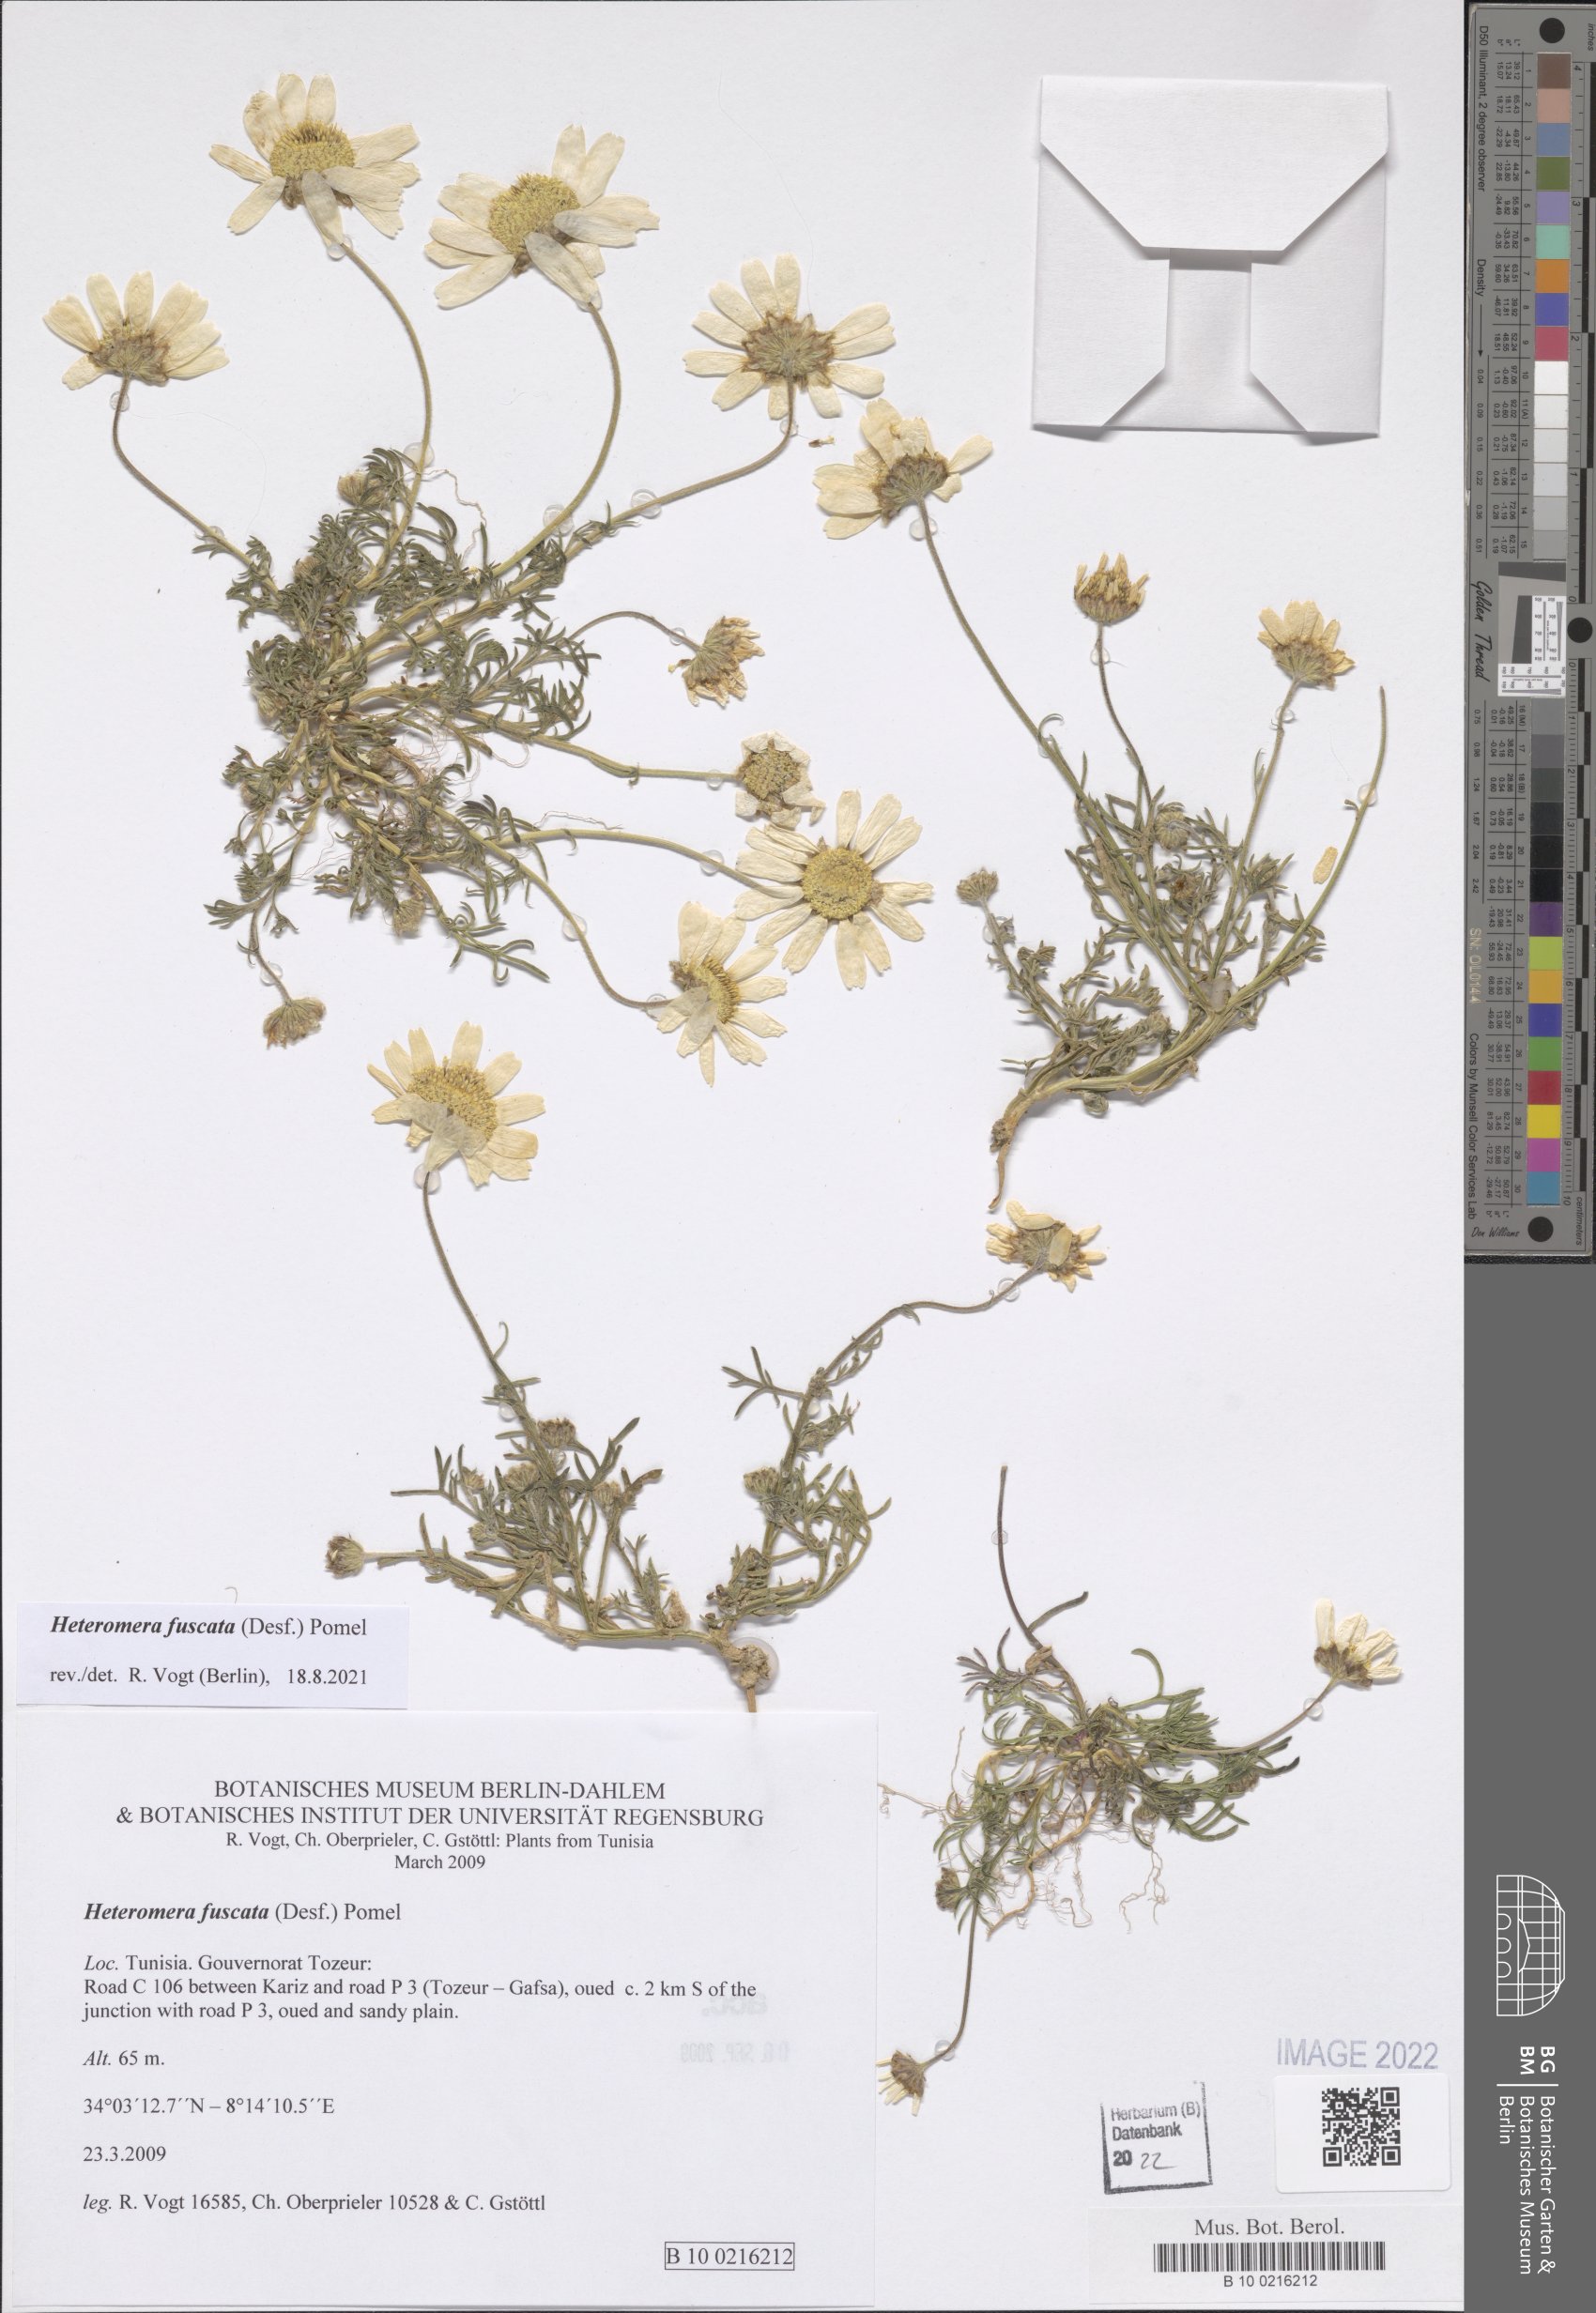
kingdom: Plantae
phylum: Tracheophyta
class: Magnoliopsida
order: Asterales
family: Asteraceae
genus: Heteromera
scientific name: Heteromera fuscata
